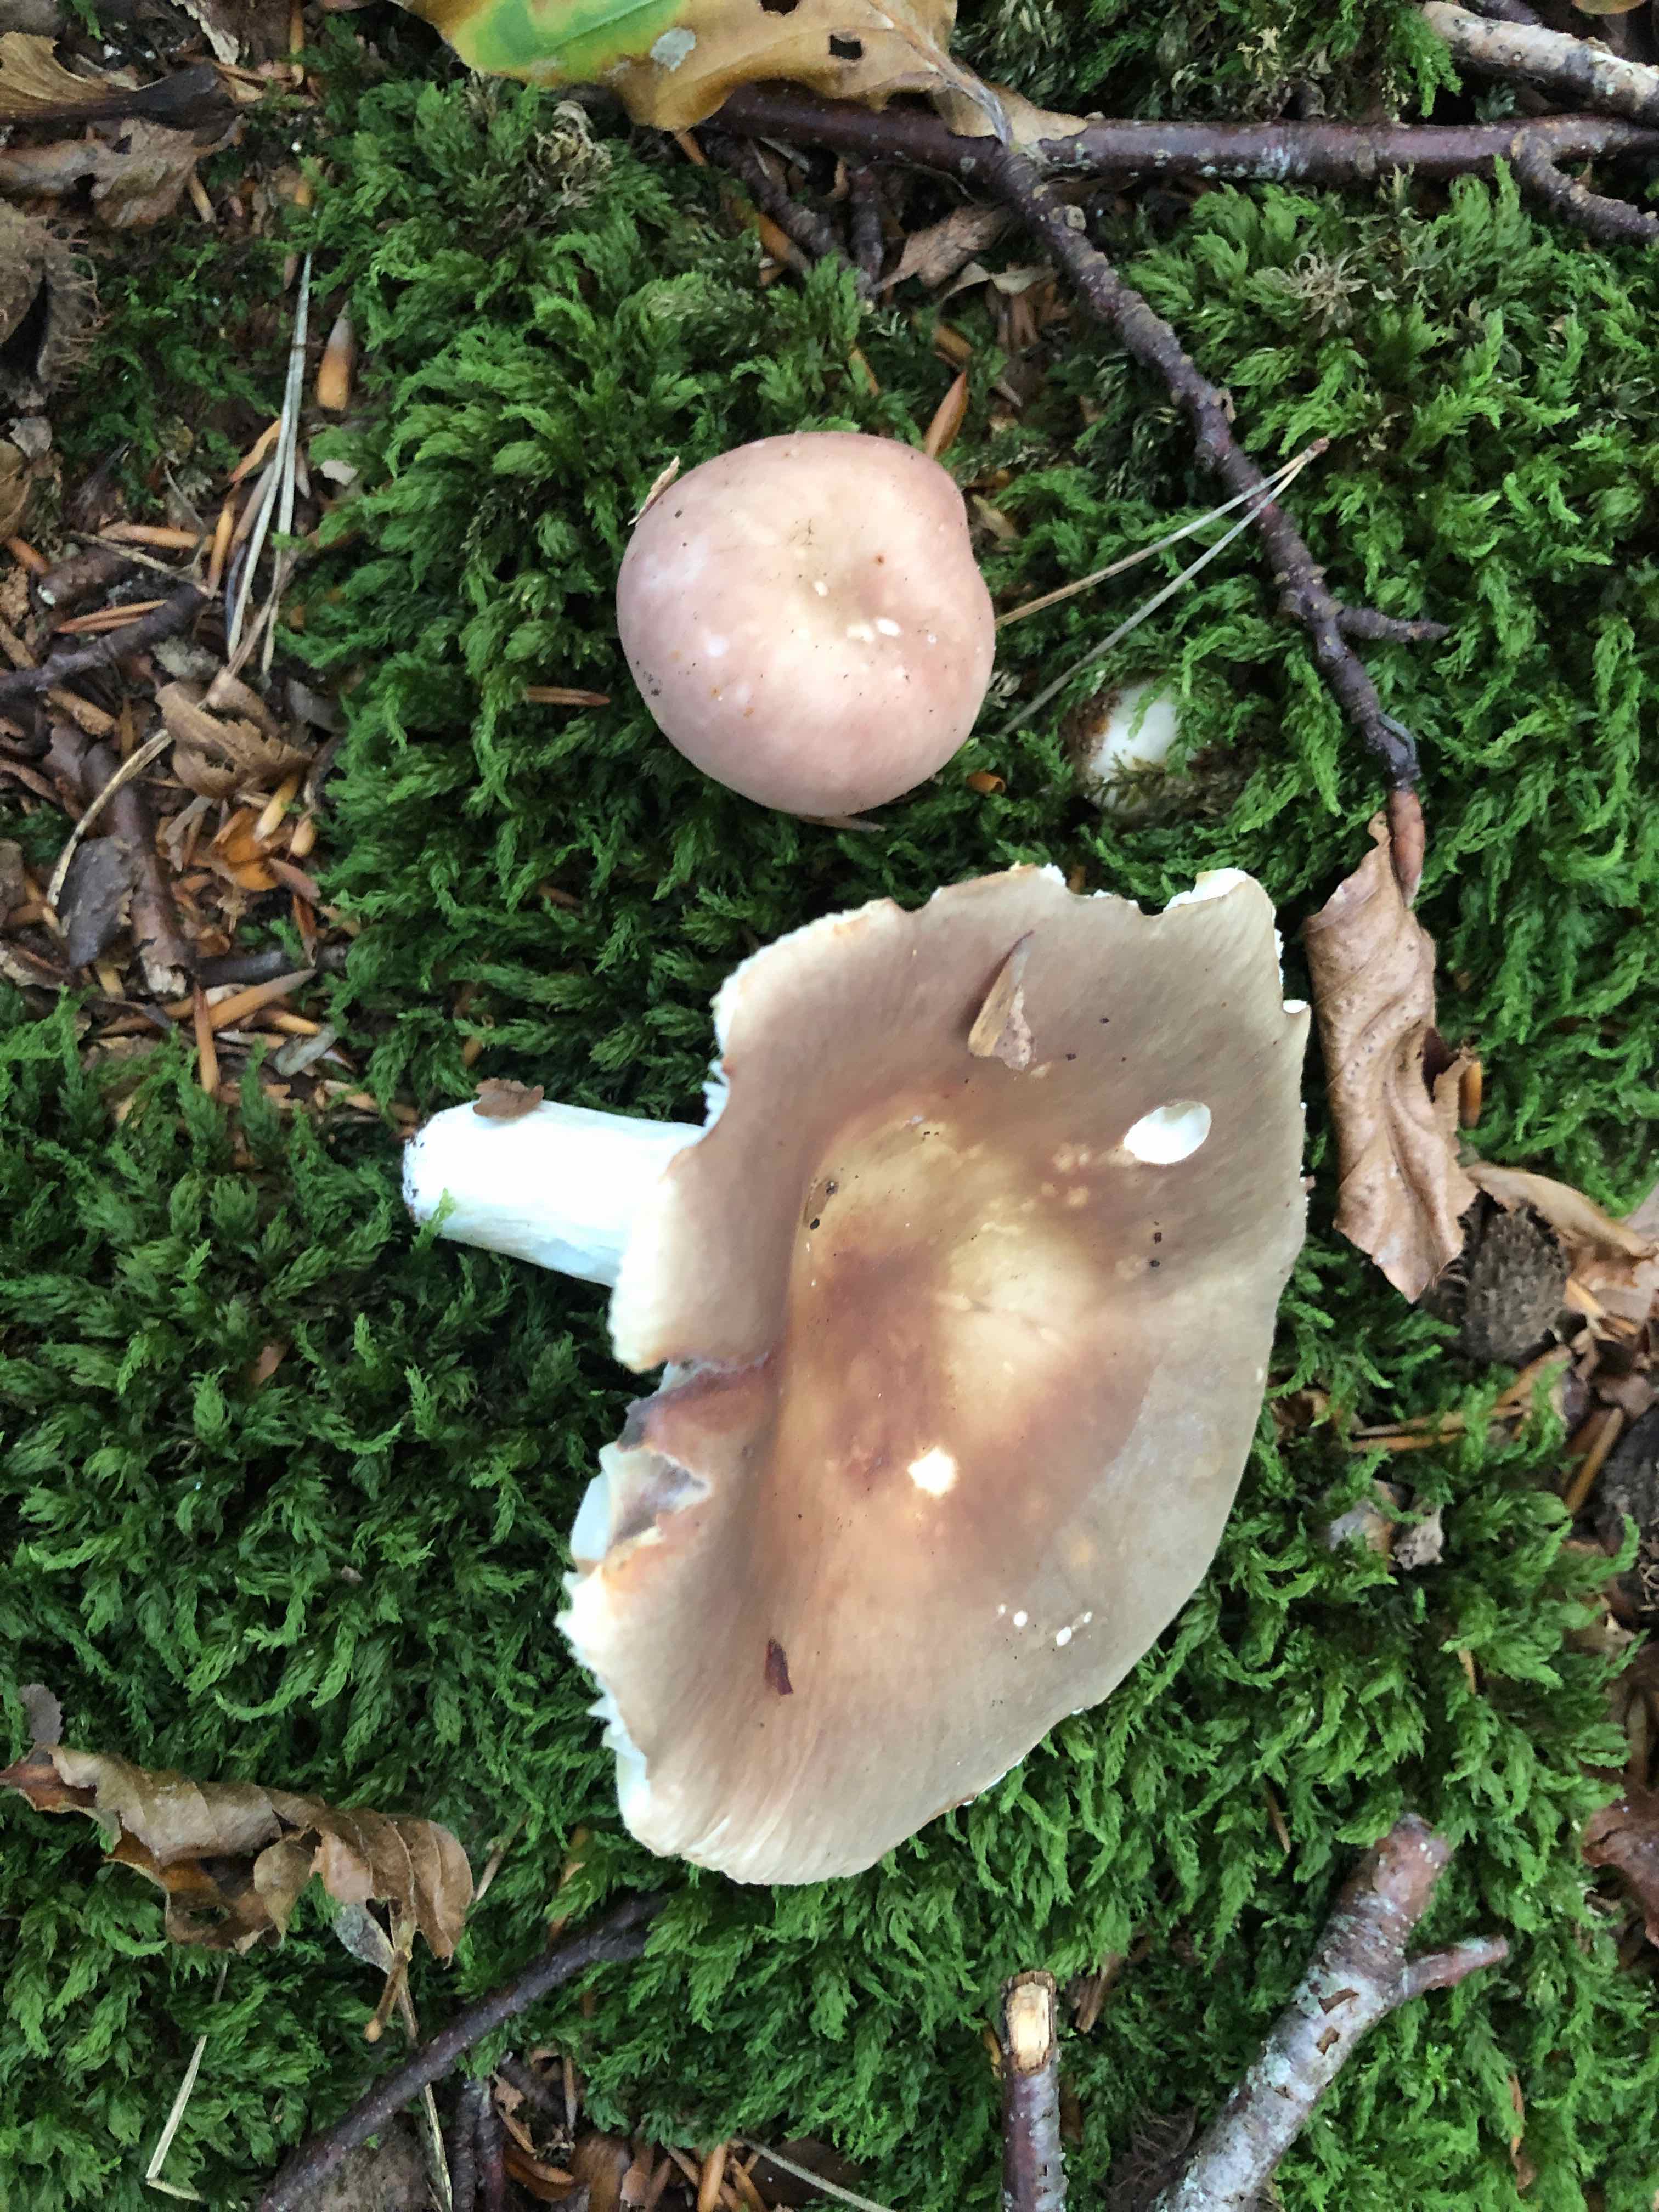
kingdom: Fungi
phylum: Basidiomycota
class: Agaricomycetes
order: Russulales
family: Russulaceae
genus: Russula
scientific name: Russula vesca
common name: spiselig skørhat
